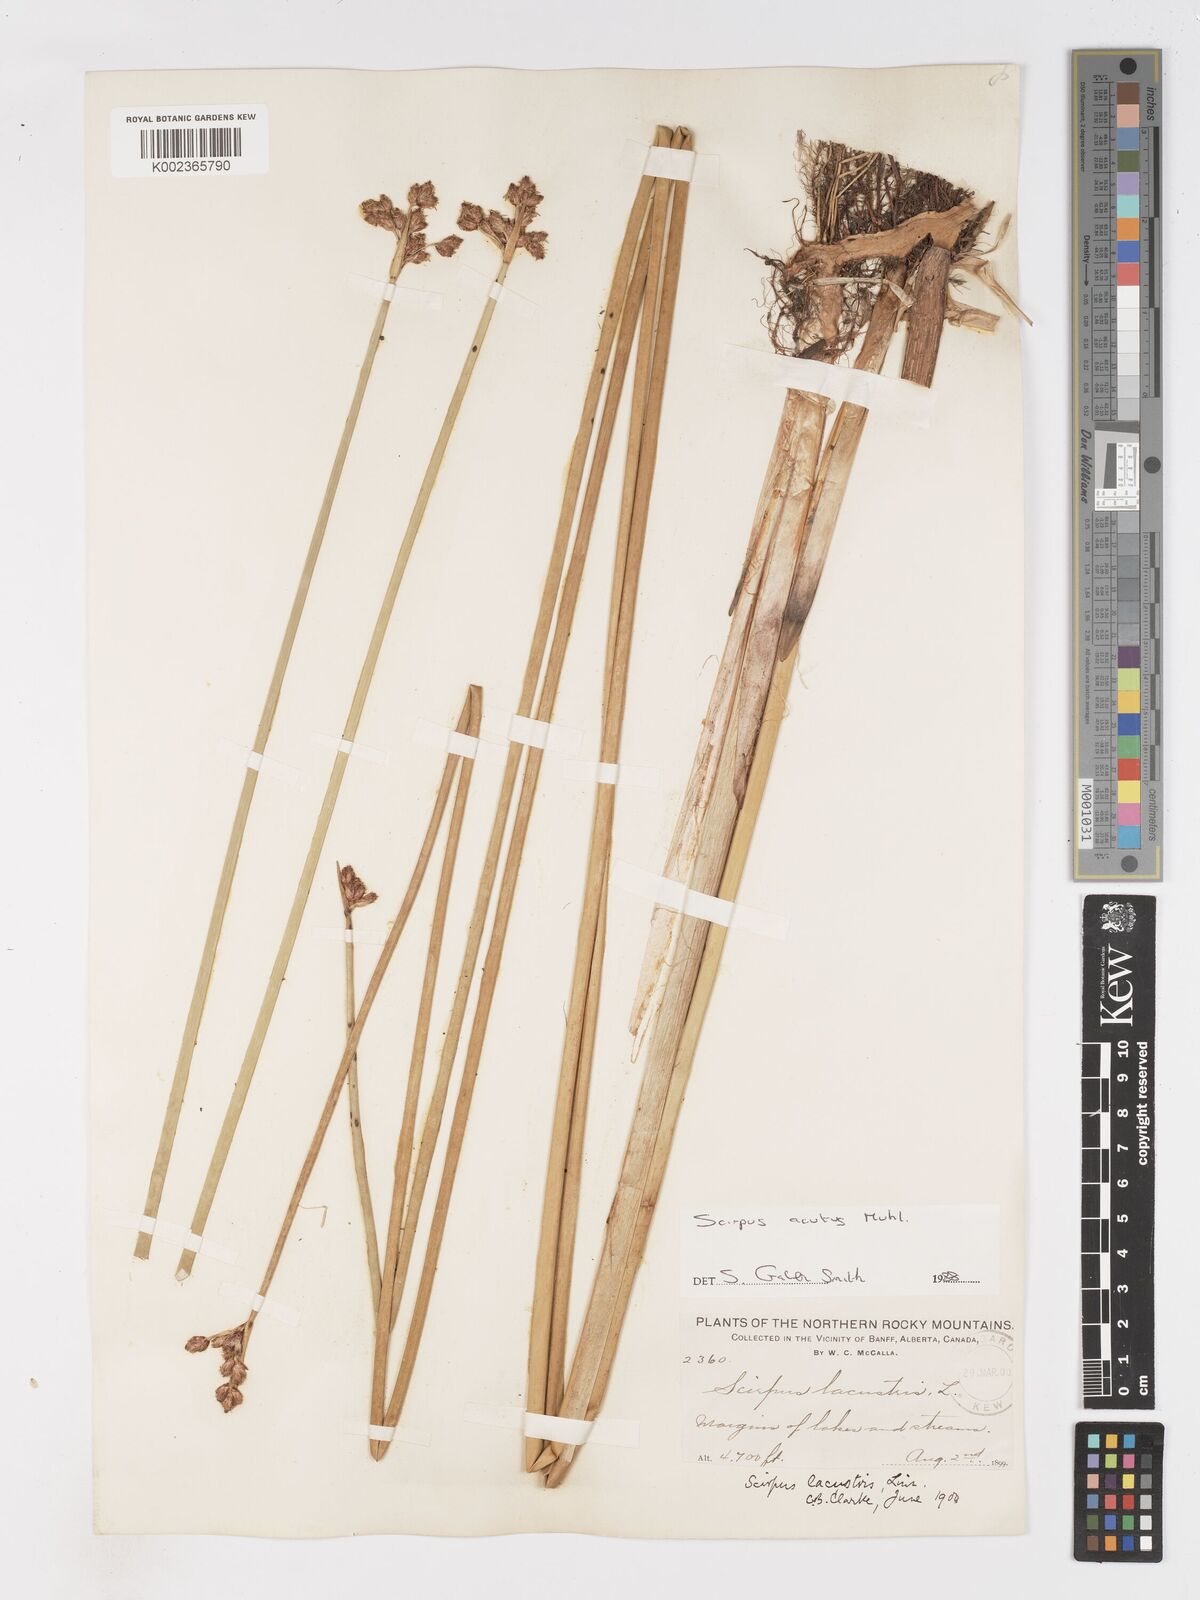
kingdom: Plantae
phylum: Tracheophyta
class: Liliopsida
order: Poales
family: Cyperaceae
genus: Schoenoplectus
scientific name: Schoenoplectus lacustris
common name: Common club-rush
